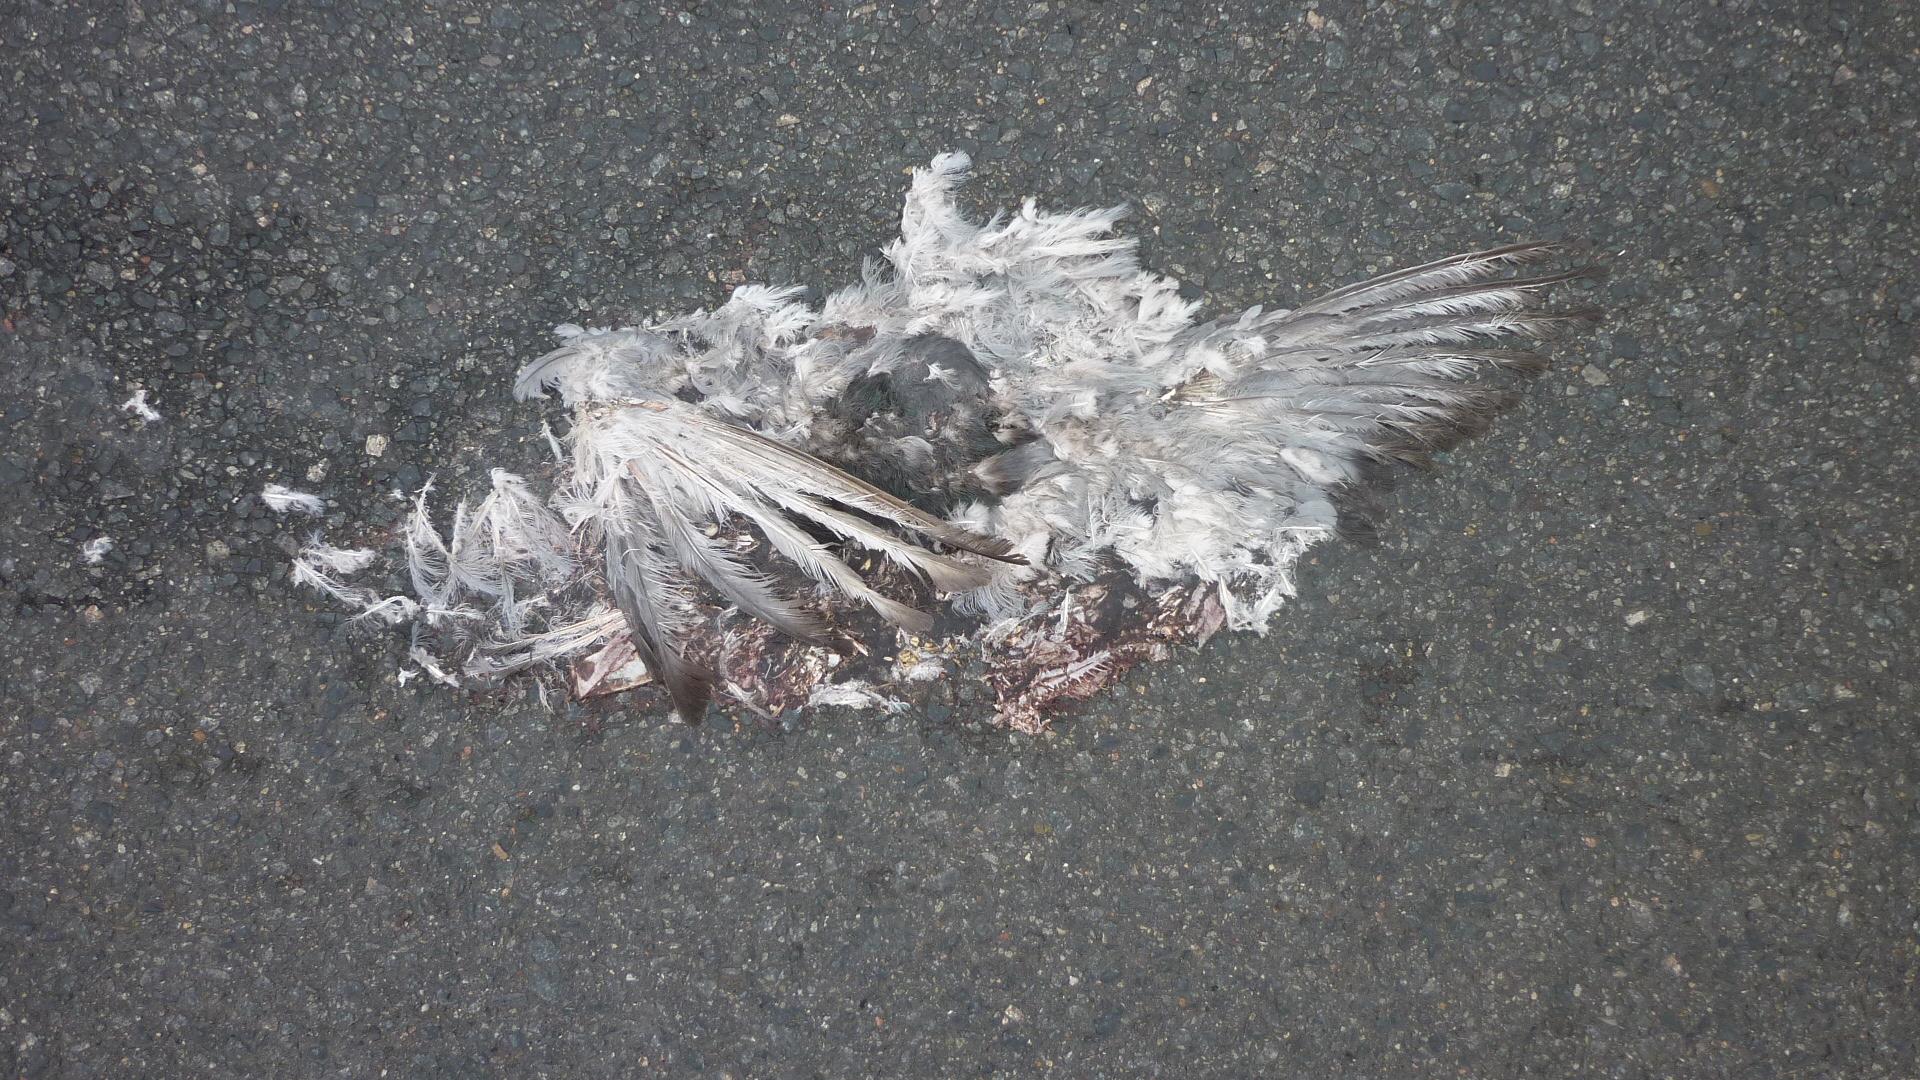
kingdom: Animalia
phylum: Chordata
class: Aves
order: Columbiformes
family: Columbidae
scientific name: Columbidae
